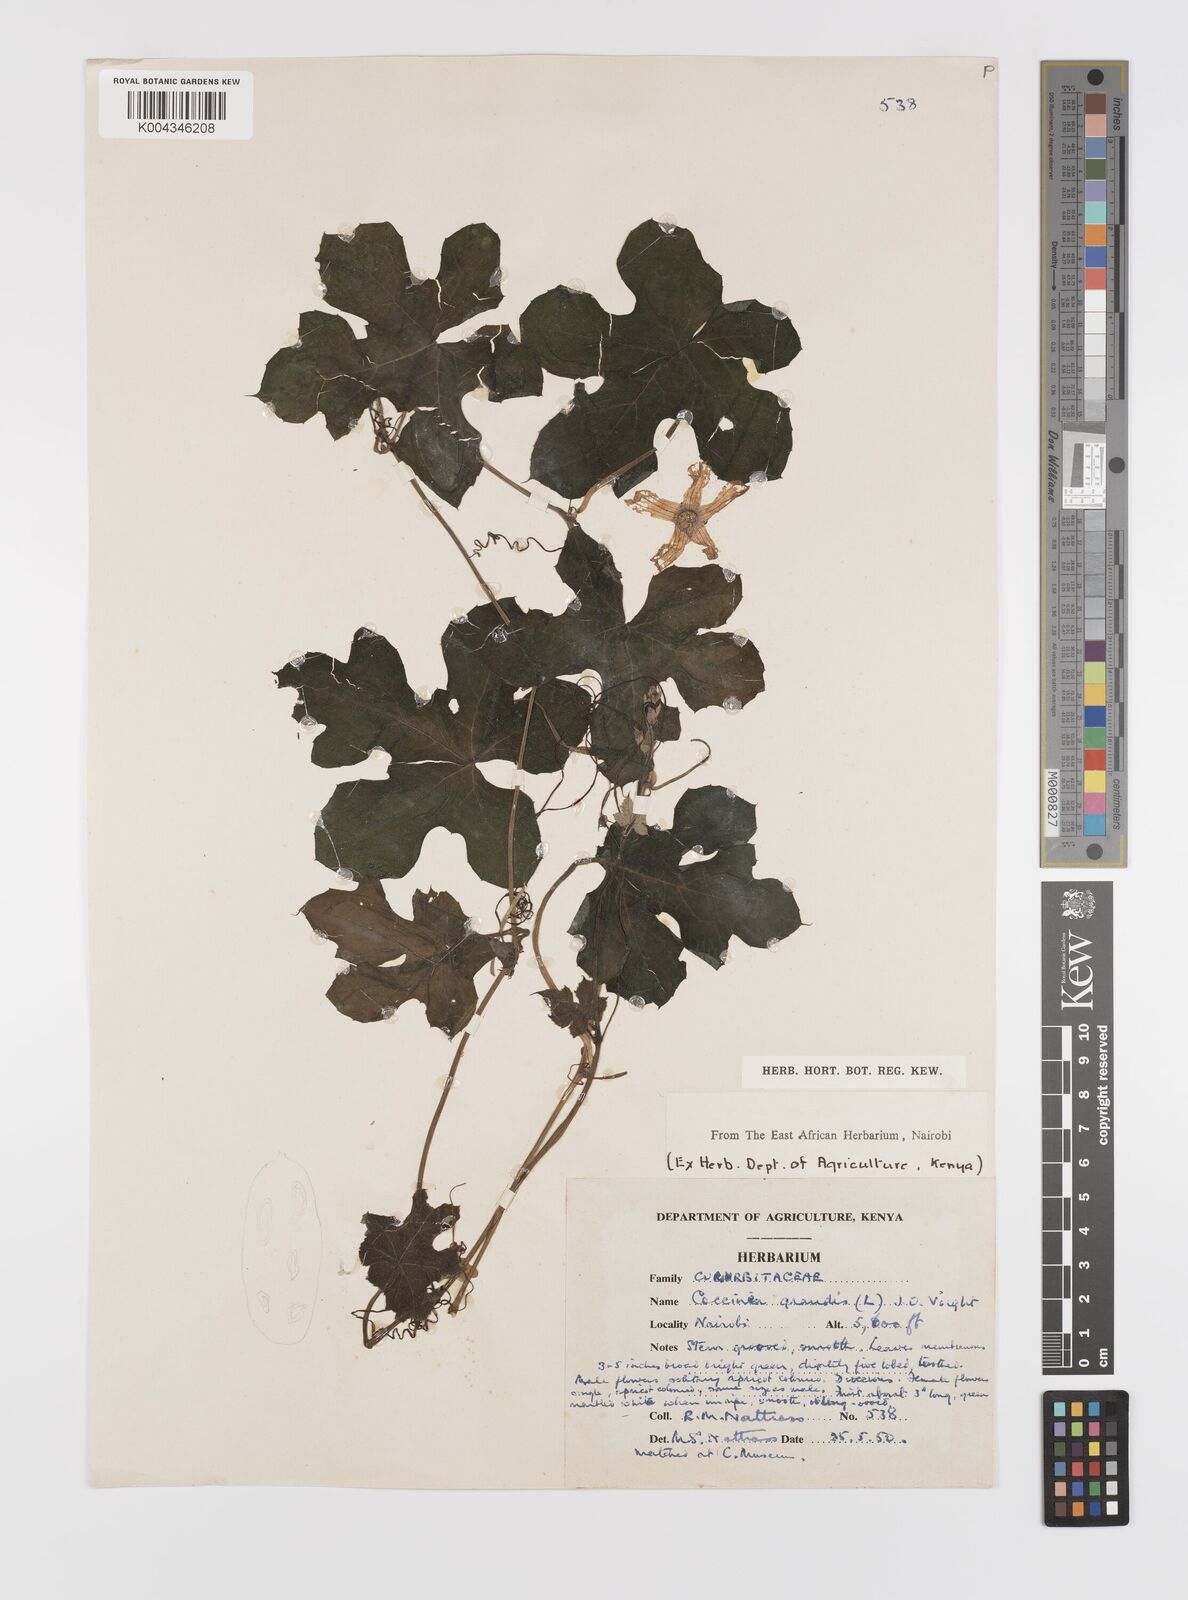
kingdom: Plantae
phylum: Tracheophyta
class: Magnoliopsida
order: Cucurbitales
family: Cucurbitaceae
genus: Coccinia
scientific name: Coccinia grandis
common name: Ivy gourd
